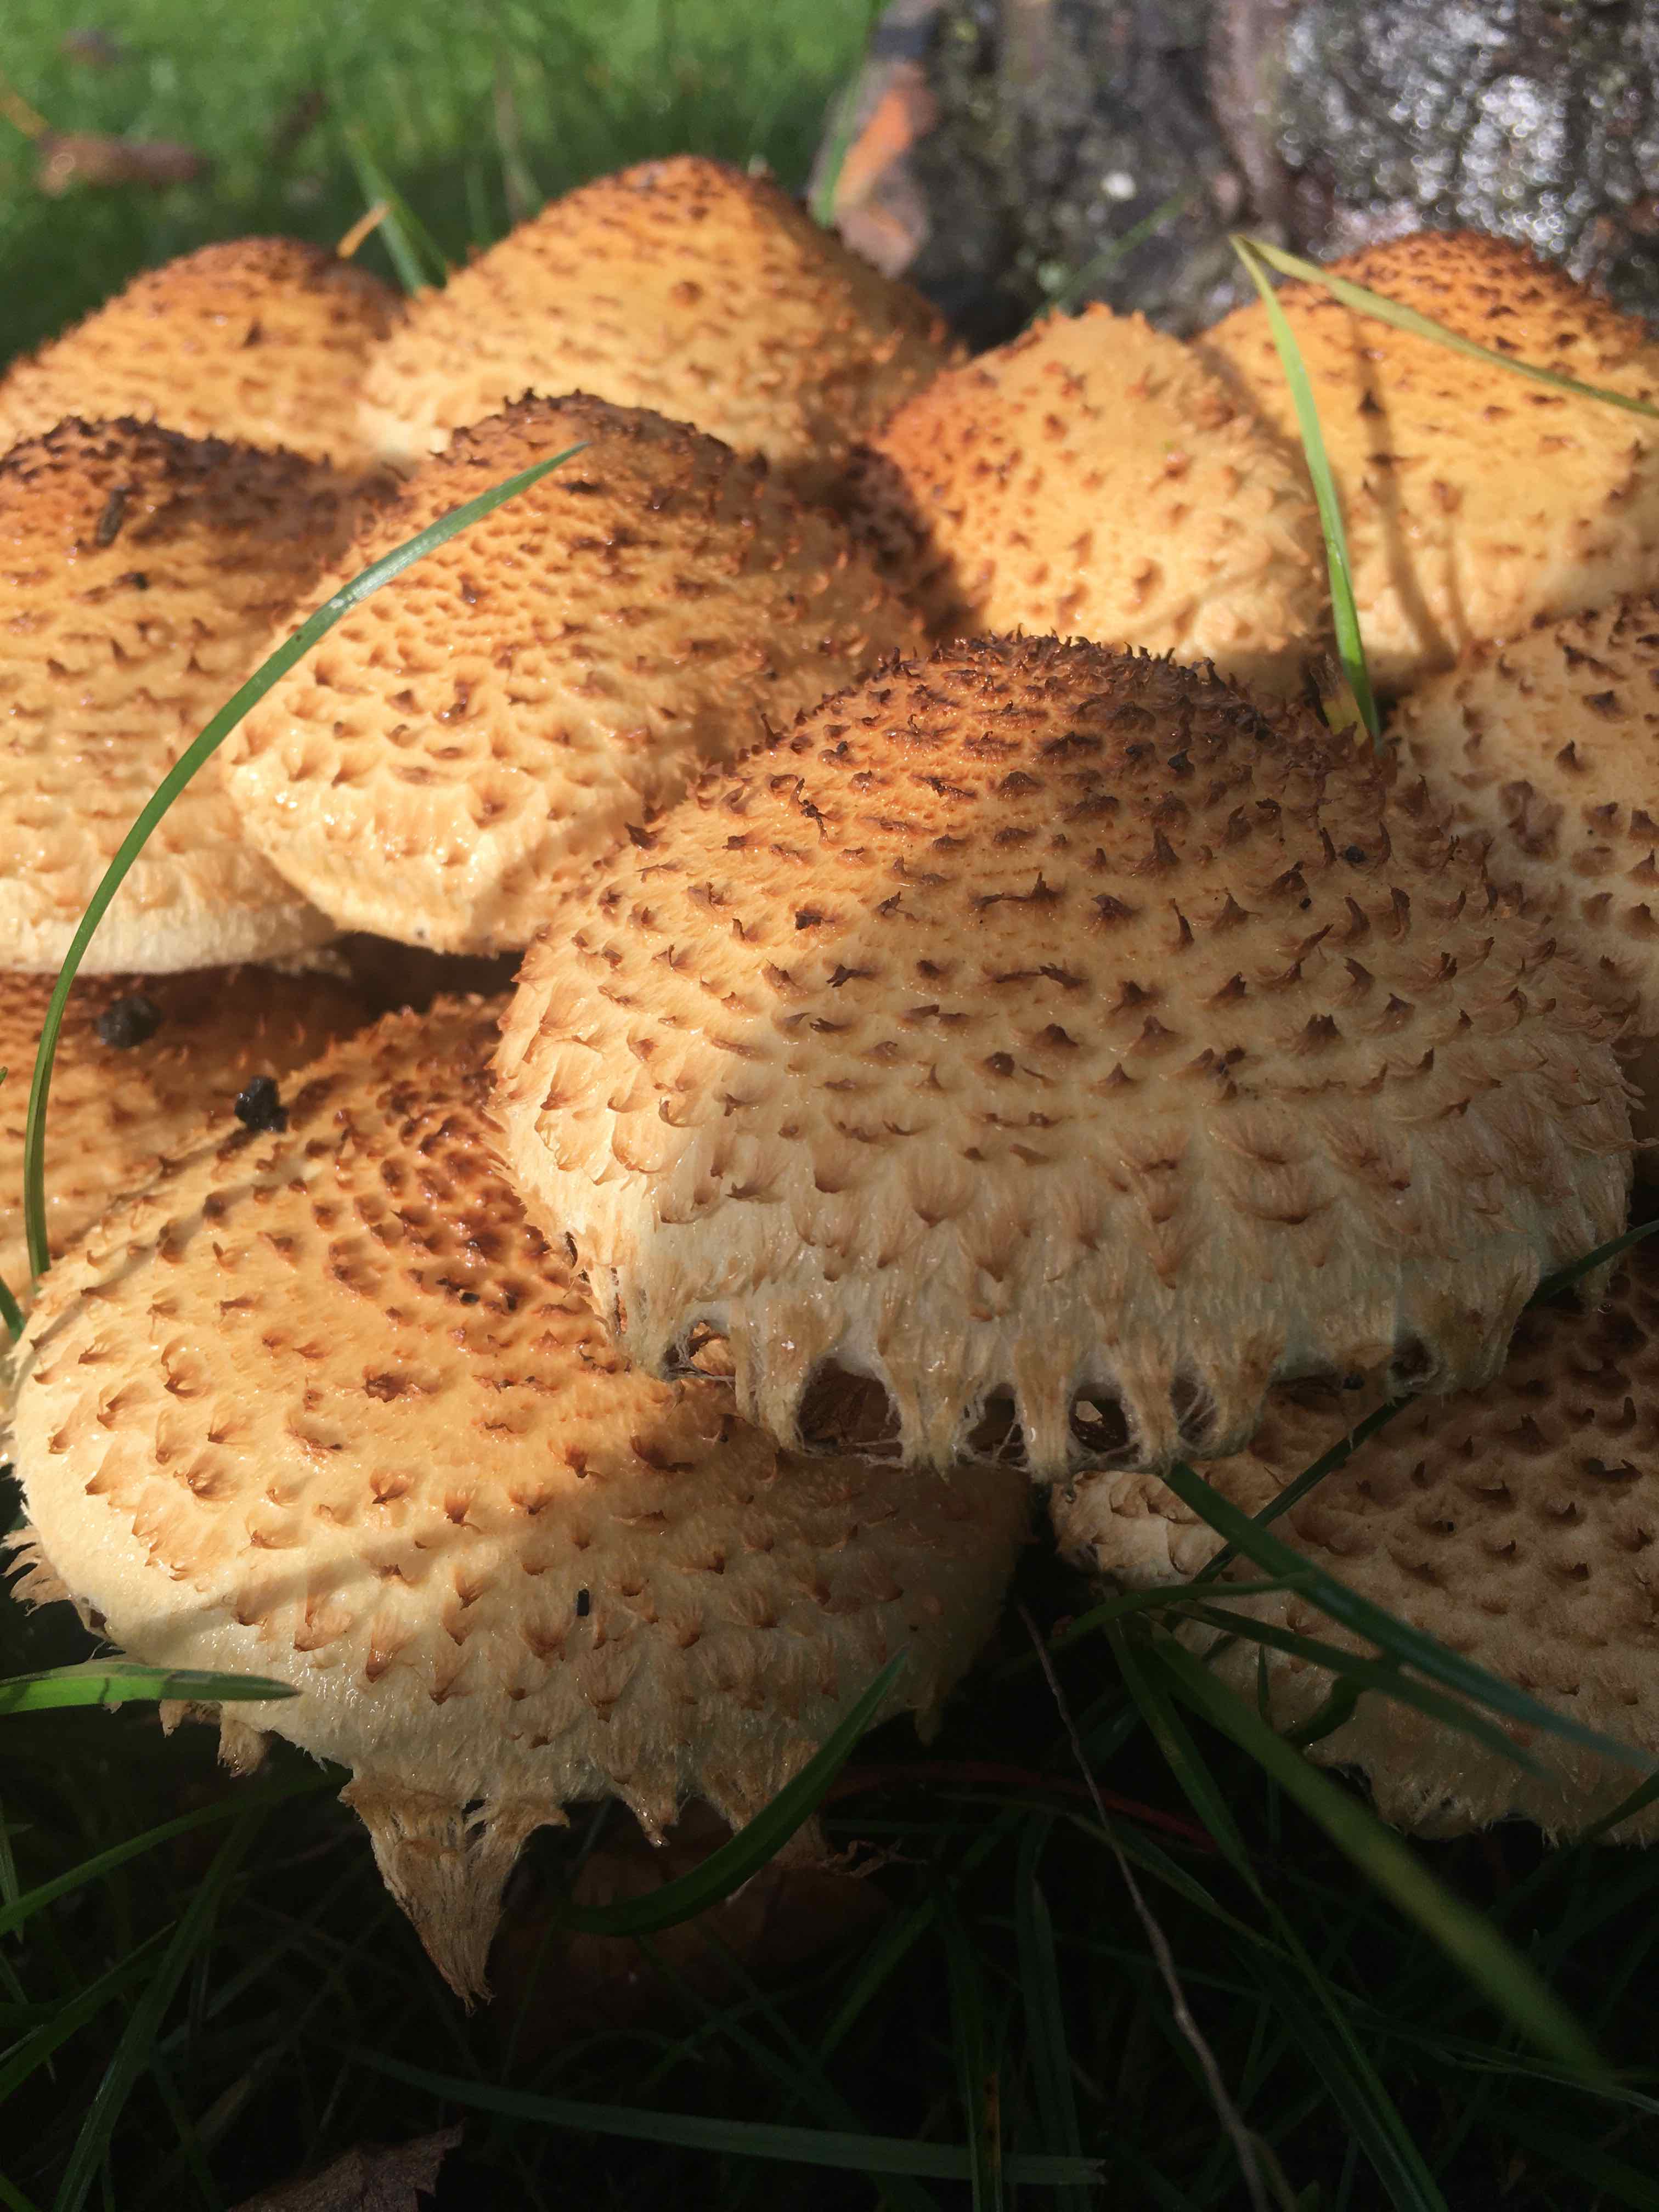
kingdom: Fungi
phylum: Basidiomycota
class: Agaricomycetes
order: Agaricales
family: Strophariaceae
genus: Pholiota
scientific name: Pholiota squarrosa
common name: krumskællet skælhat
